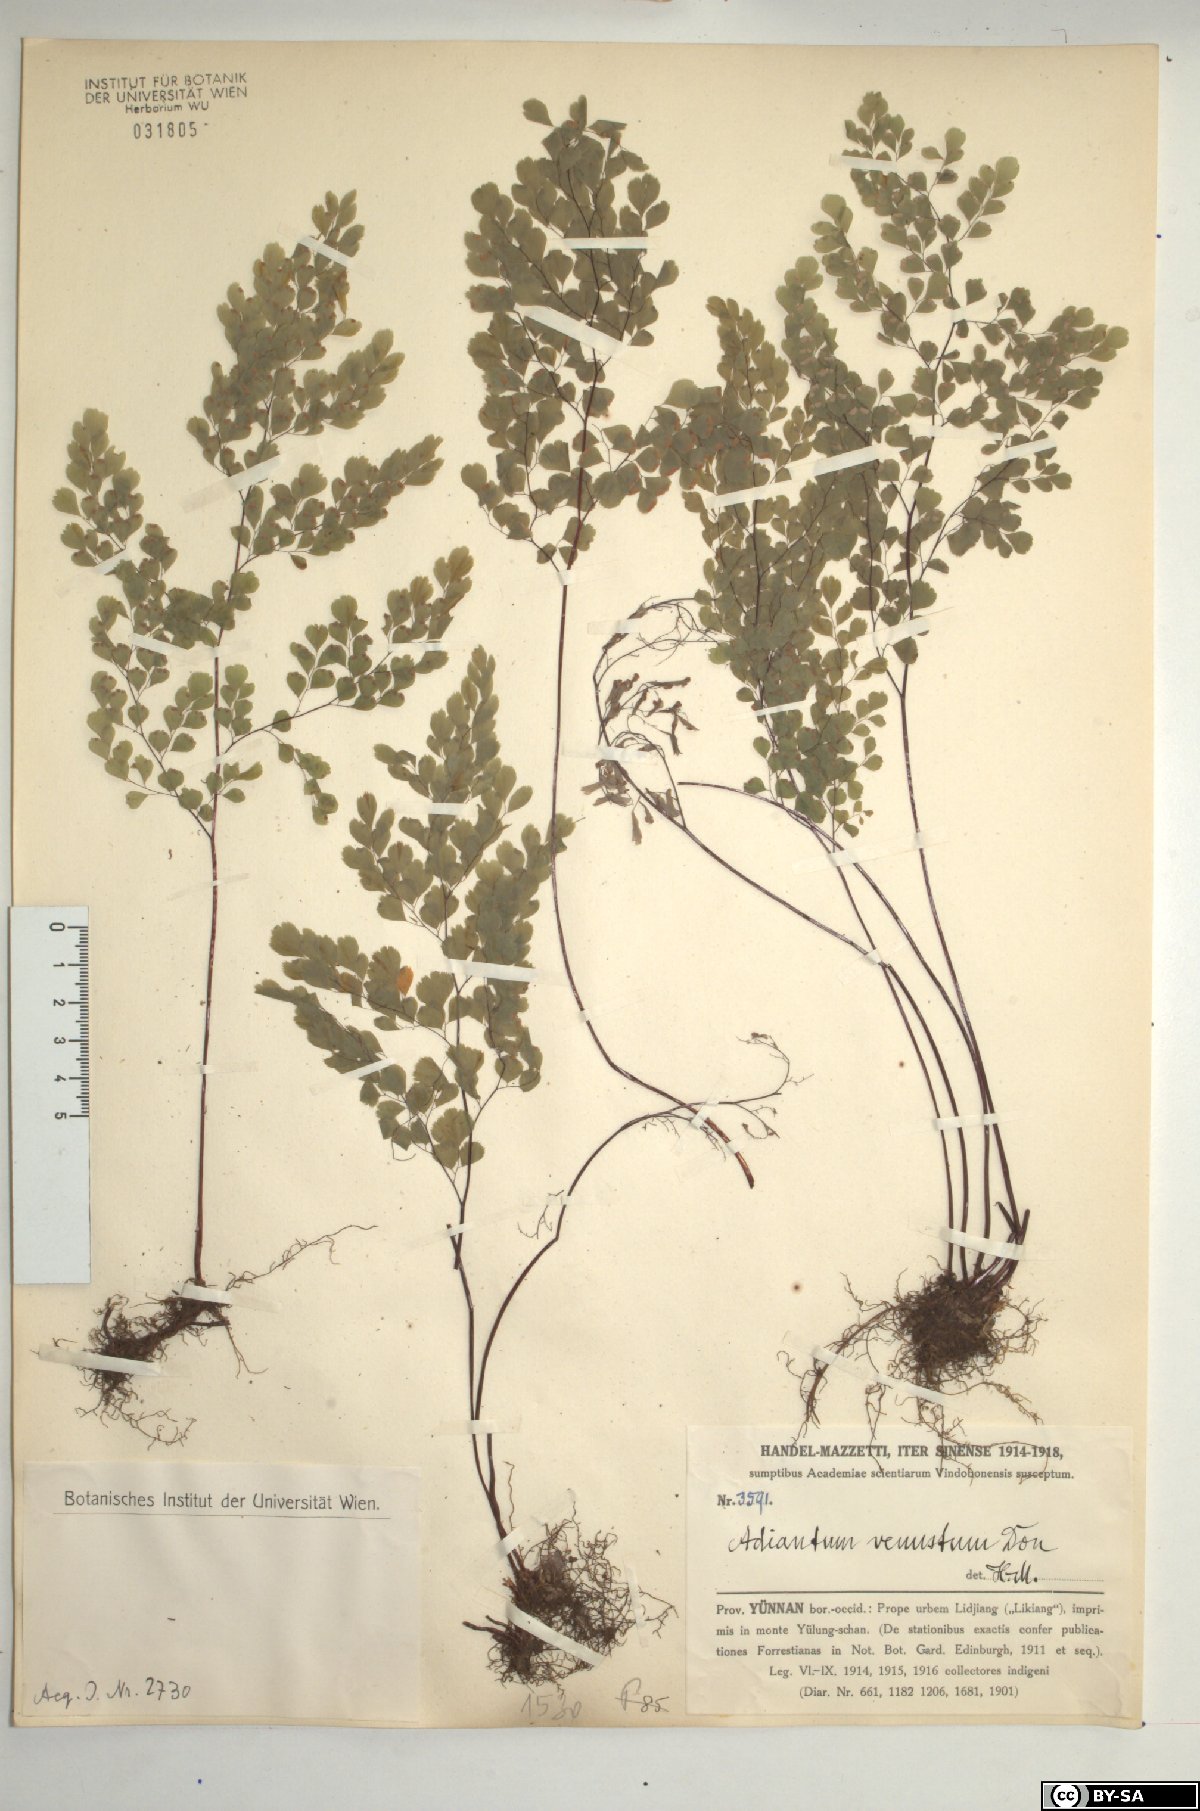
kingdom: Plantae
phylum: Tracheophyta
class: Polypodiopsida
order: Polypodiales
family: Pteridaceae
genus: Adiantum
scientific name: Adiantum venustum
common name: Evergreen maidenhair
